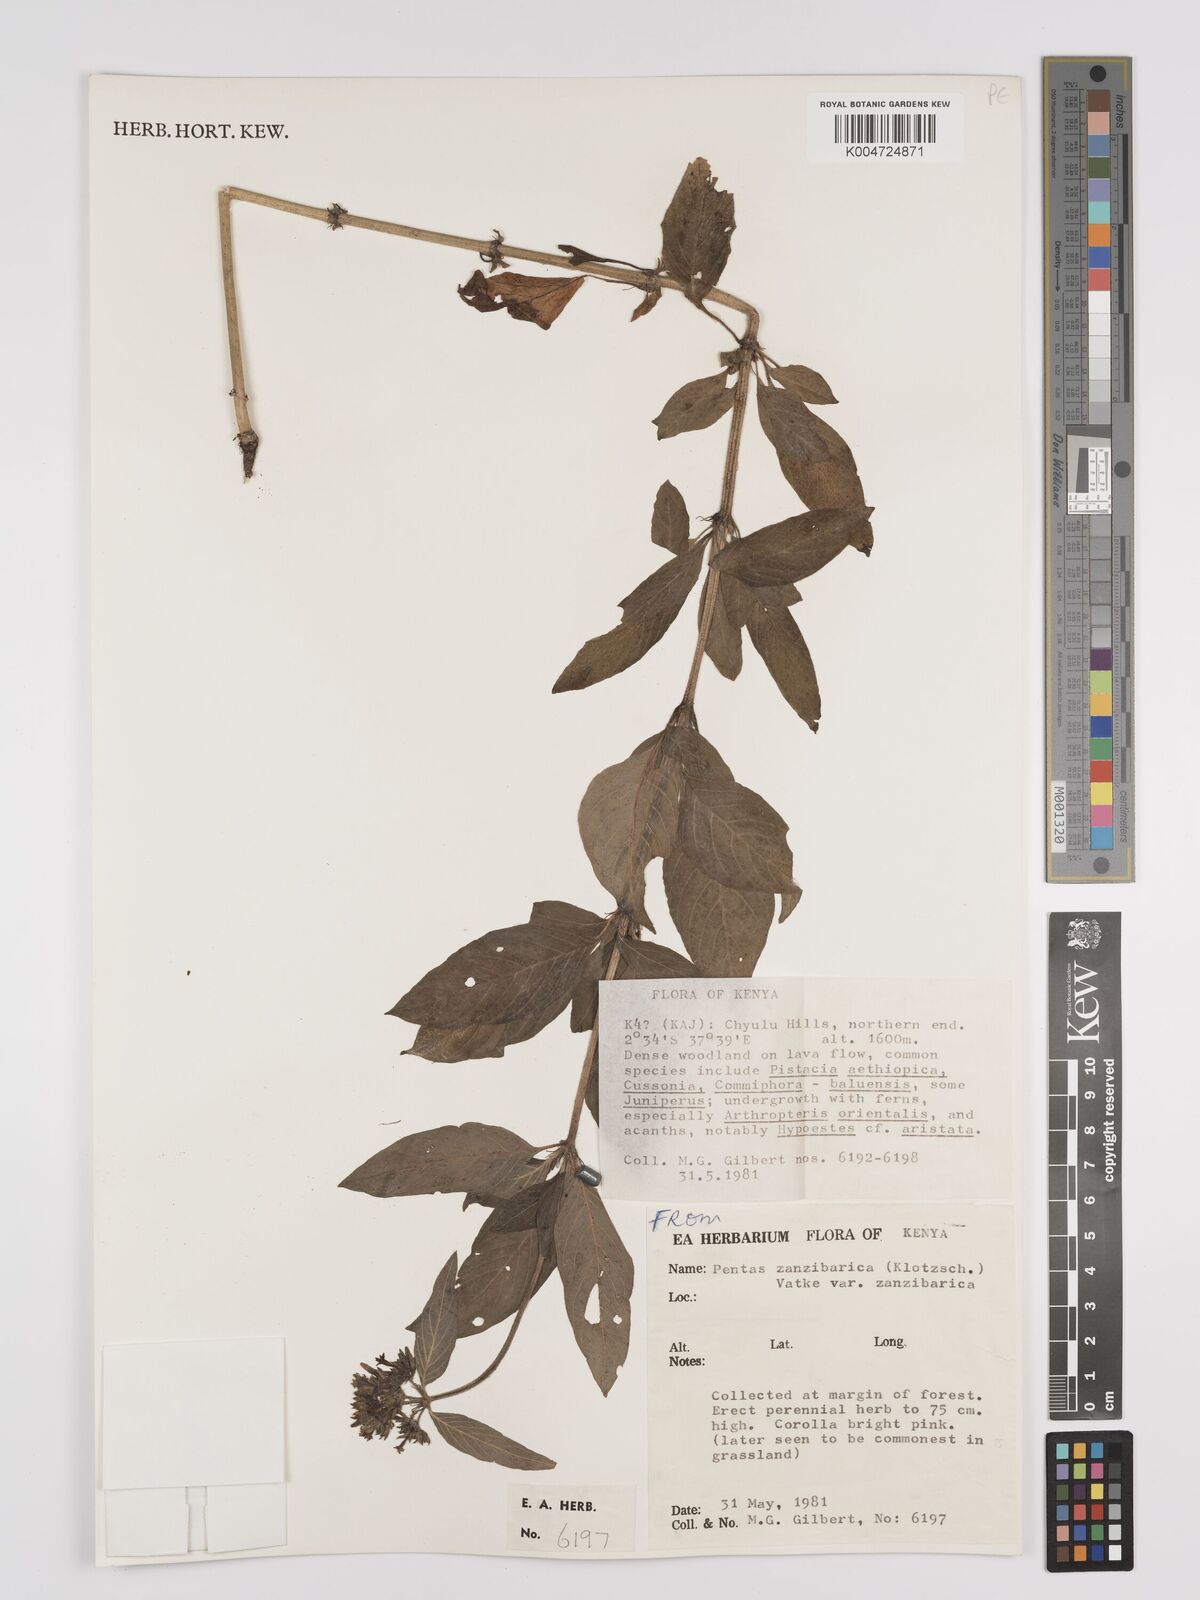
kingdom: Plantae
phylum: Tracheophyta
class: Magnoliopsida
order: Gentianales
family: Rubiaceae
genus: Pentas
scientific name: Pentas zanzibarica
